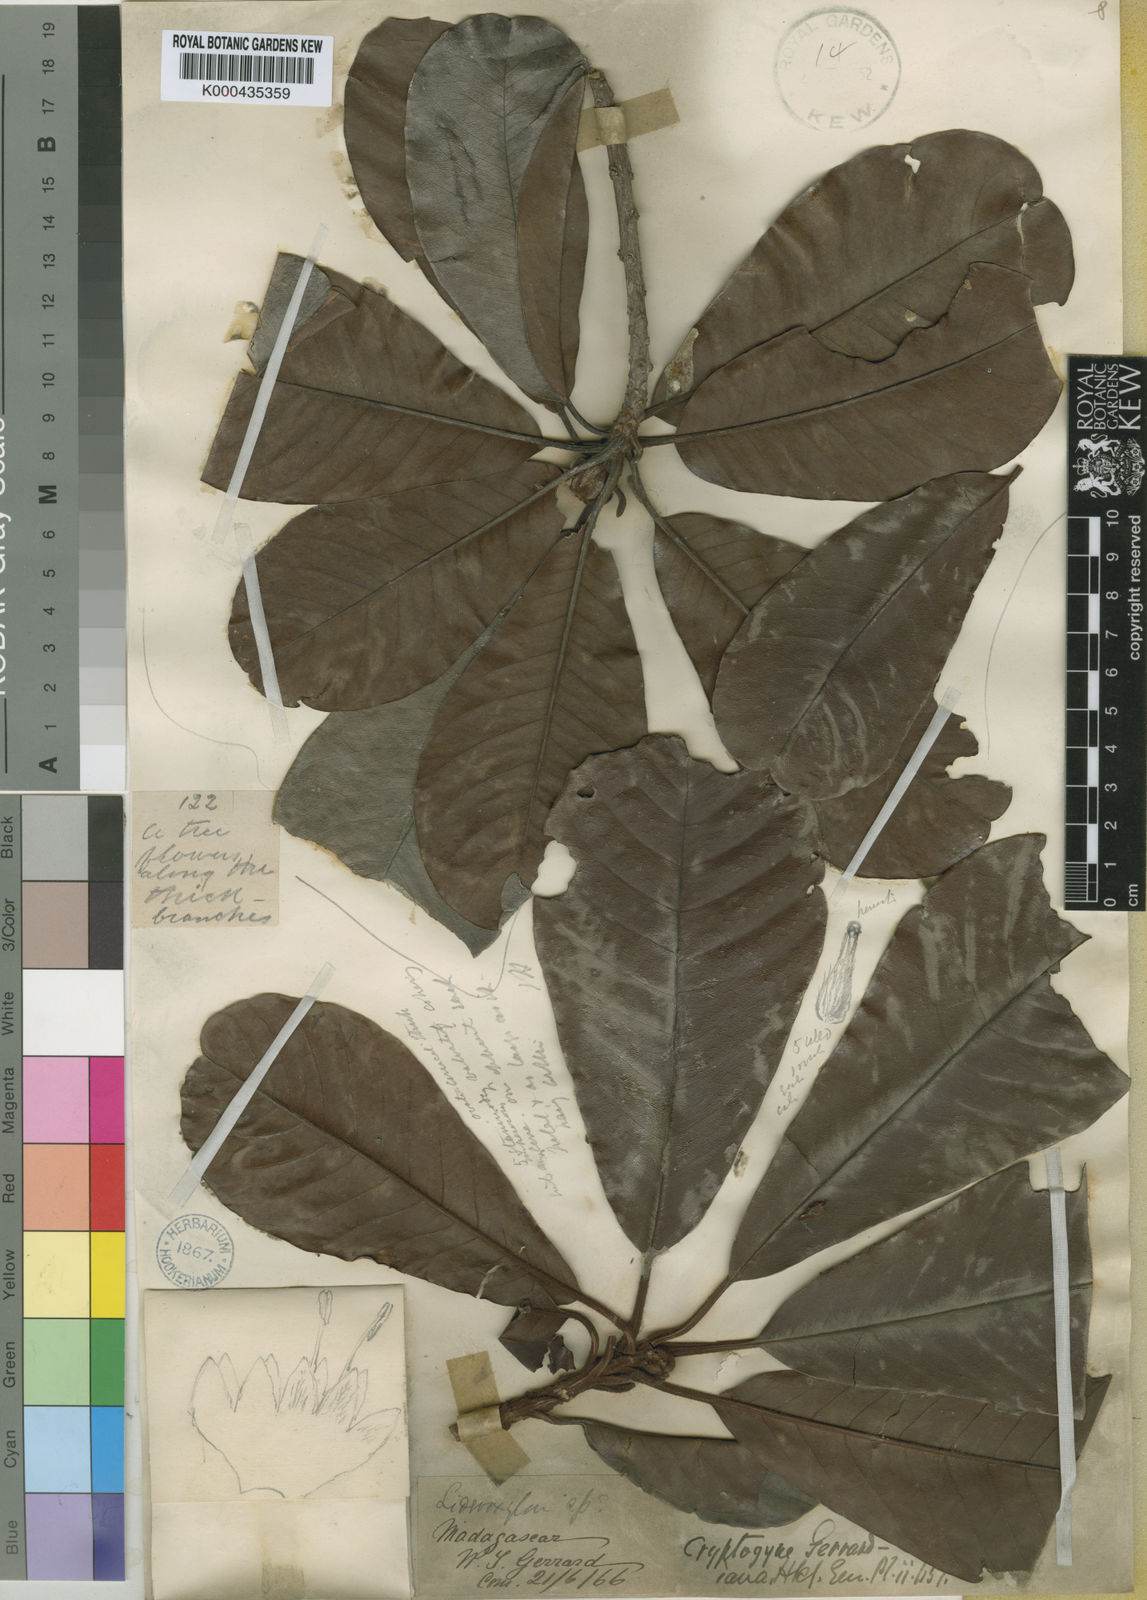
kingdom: Plantae
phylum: Tracheophyta
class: Magnoliopsida
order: Ericales
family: Sapotaceae
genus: Sideroxylon
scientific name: Sideroxylon
